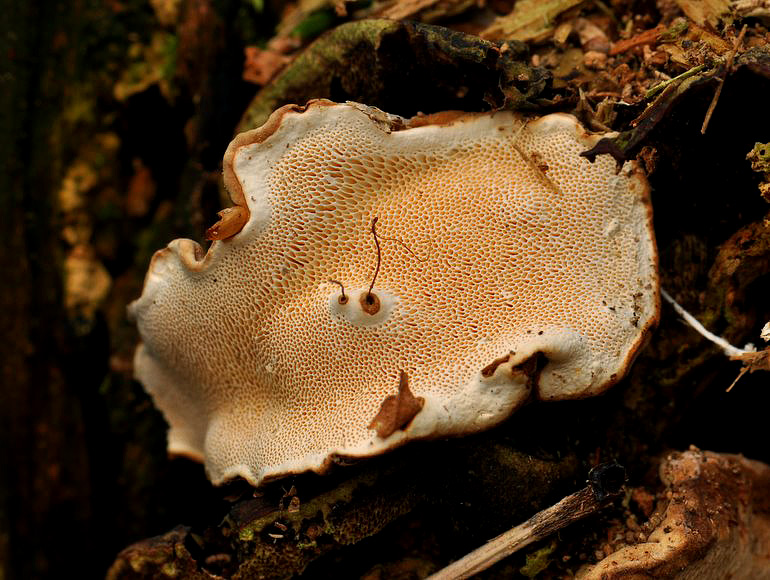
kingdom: Fungi
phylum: Basidiomycota
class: Agaricomycetes
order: Russulales
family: Bondarzewiaceae
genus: Heterobasidion
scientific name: Heterobasidion annosum
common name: almindelig rodfordærver
